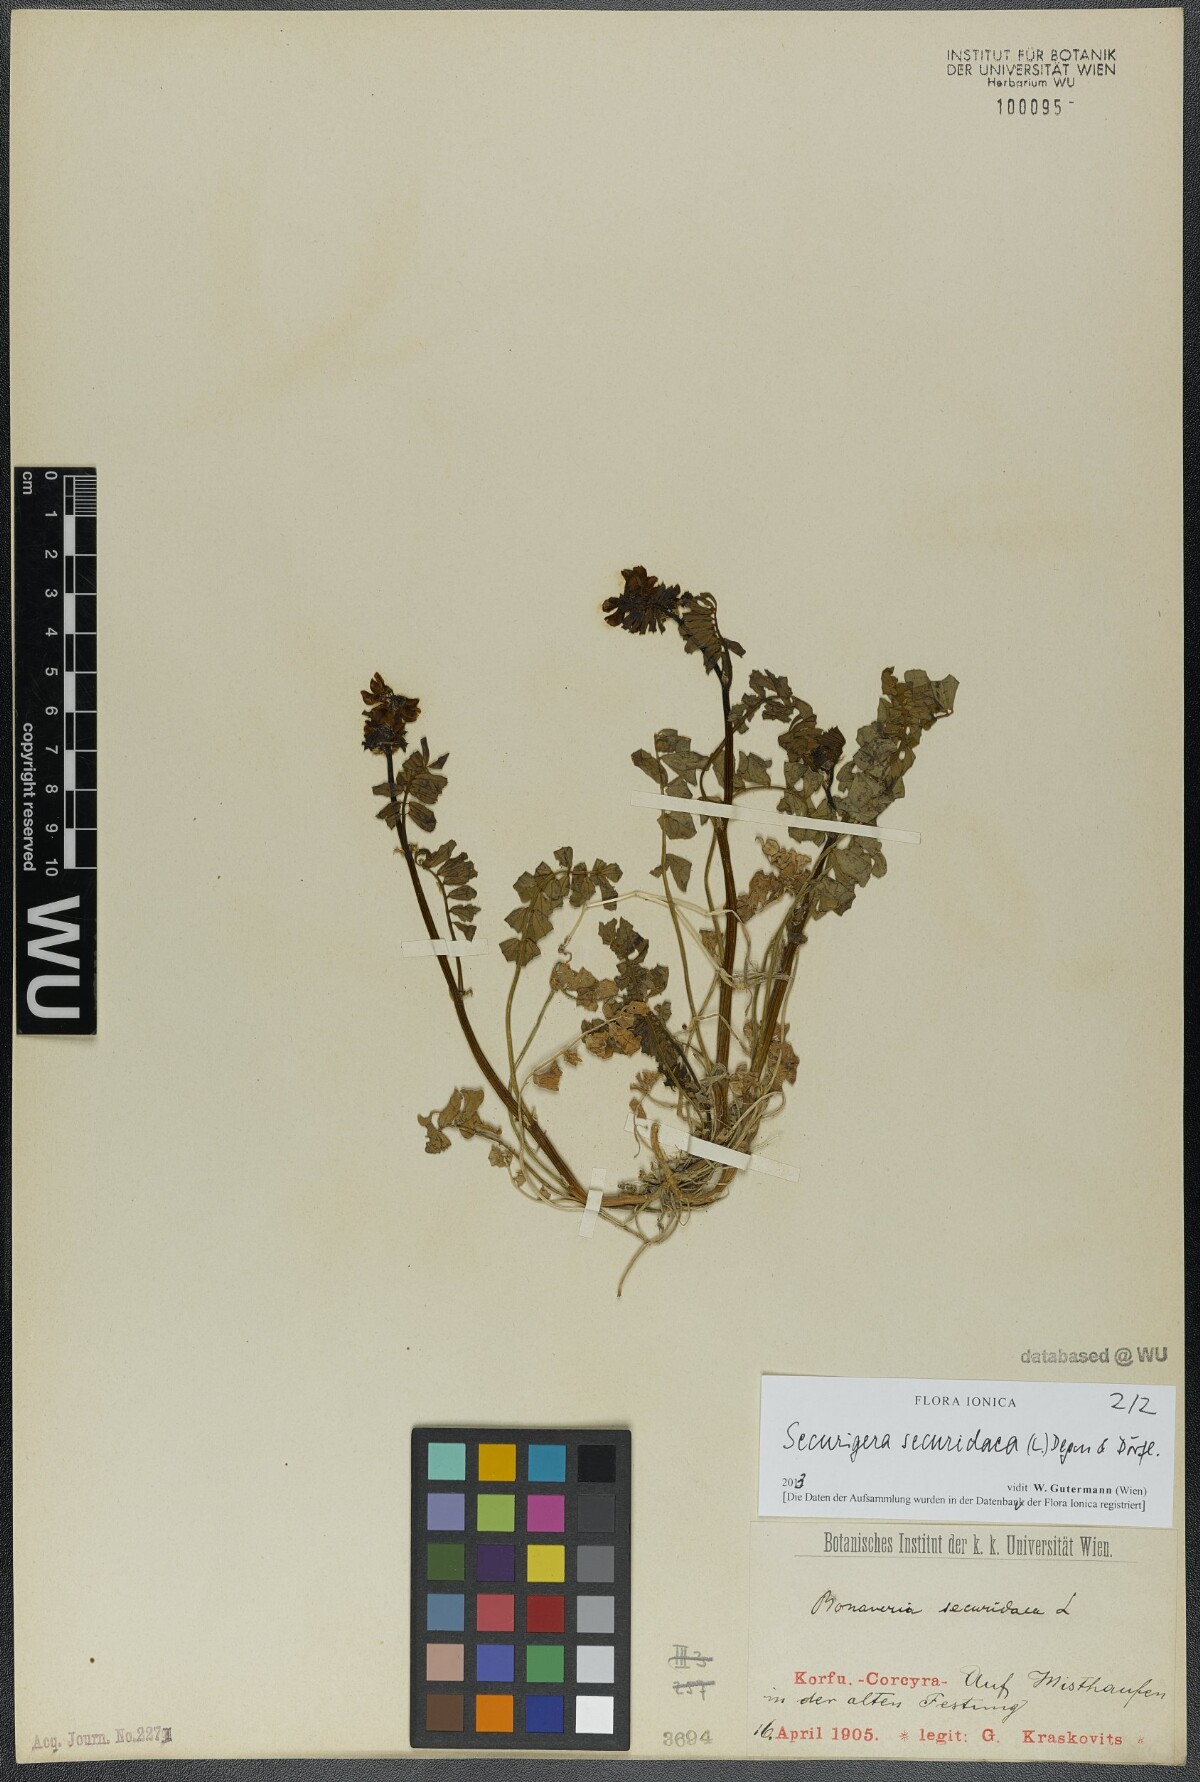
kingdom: Plantae
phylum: Tracheophyta
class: Magnoliopsida
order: Fabales
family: Fabaceae
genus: Coronilla
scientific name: Coronilla securidaca
